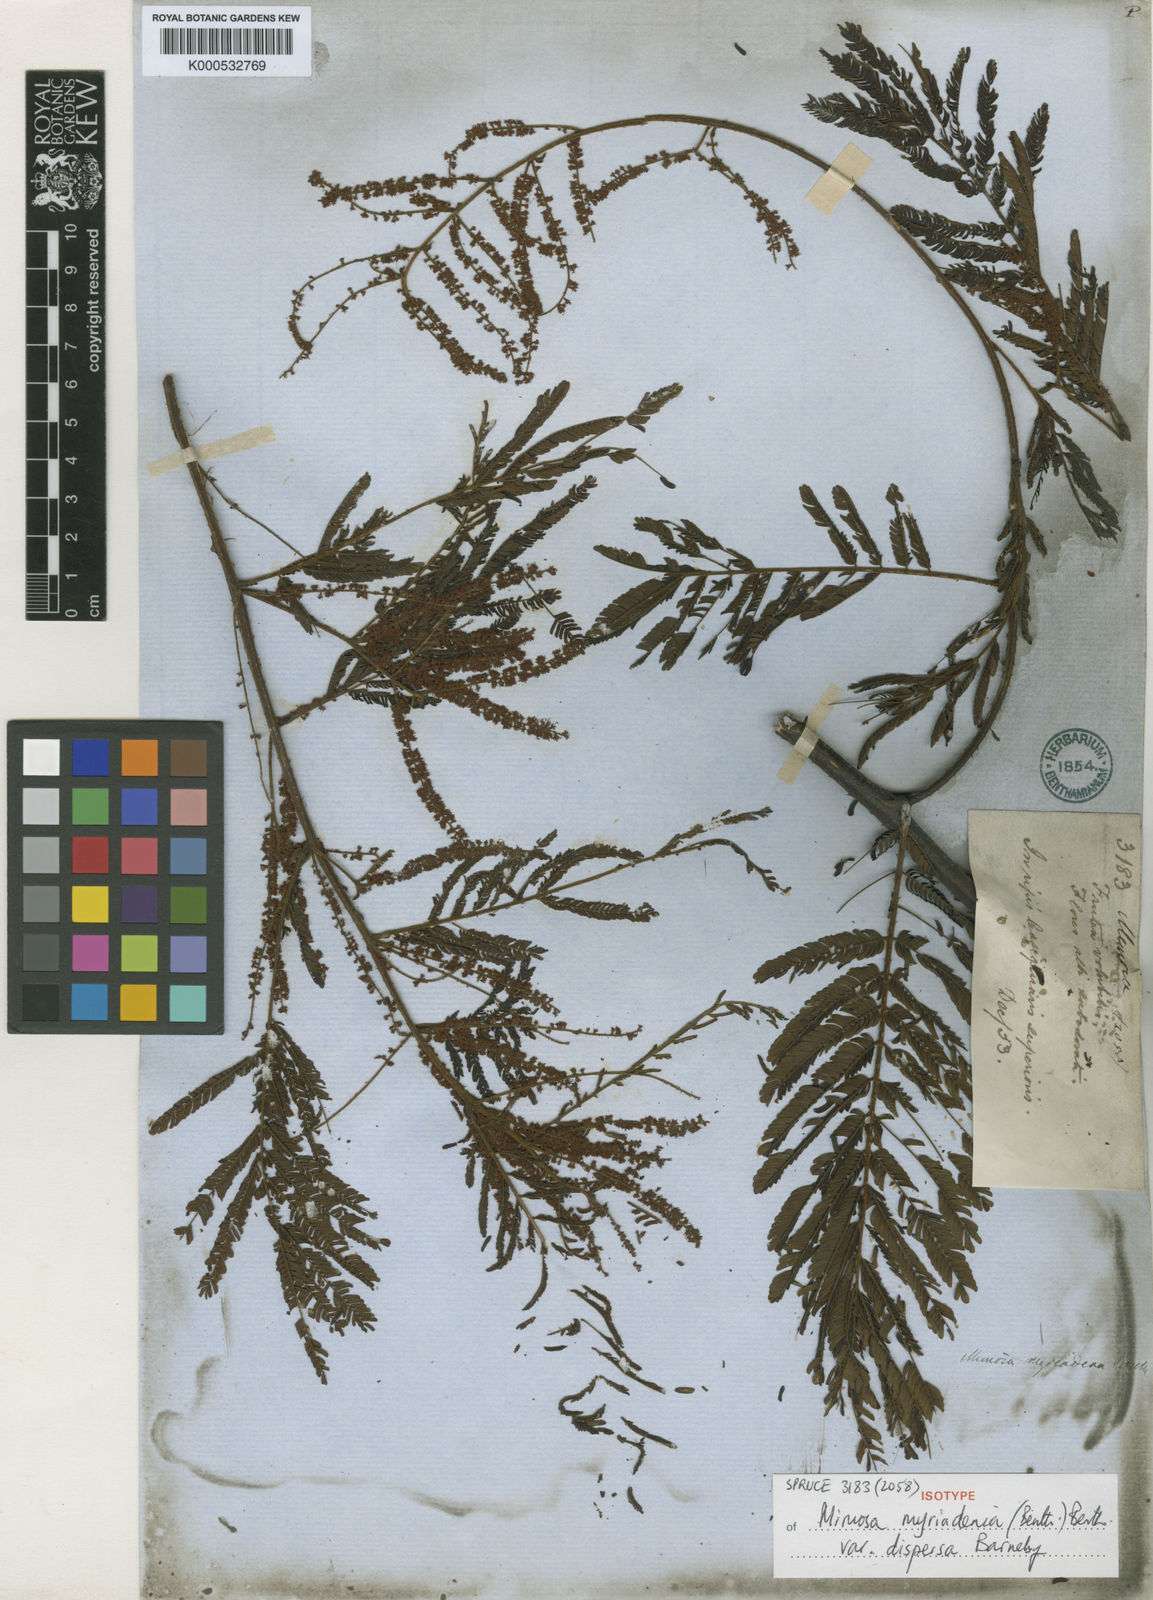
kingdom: Plantae
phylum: Tracheophyta
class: Magnoliopsida
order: Fabales
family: Fabaceae
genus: Mimosa
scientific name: Mimosa myriadenia
